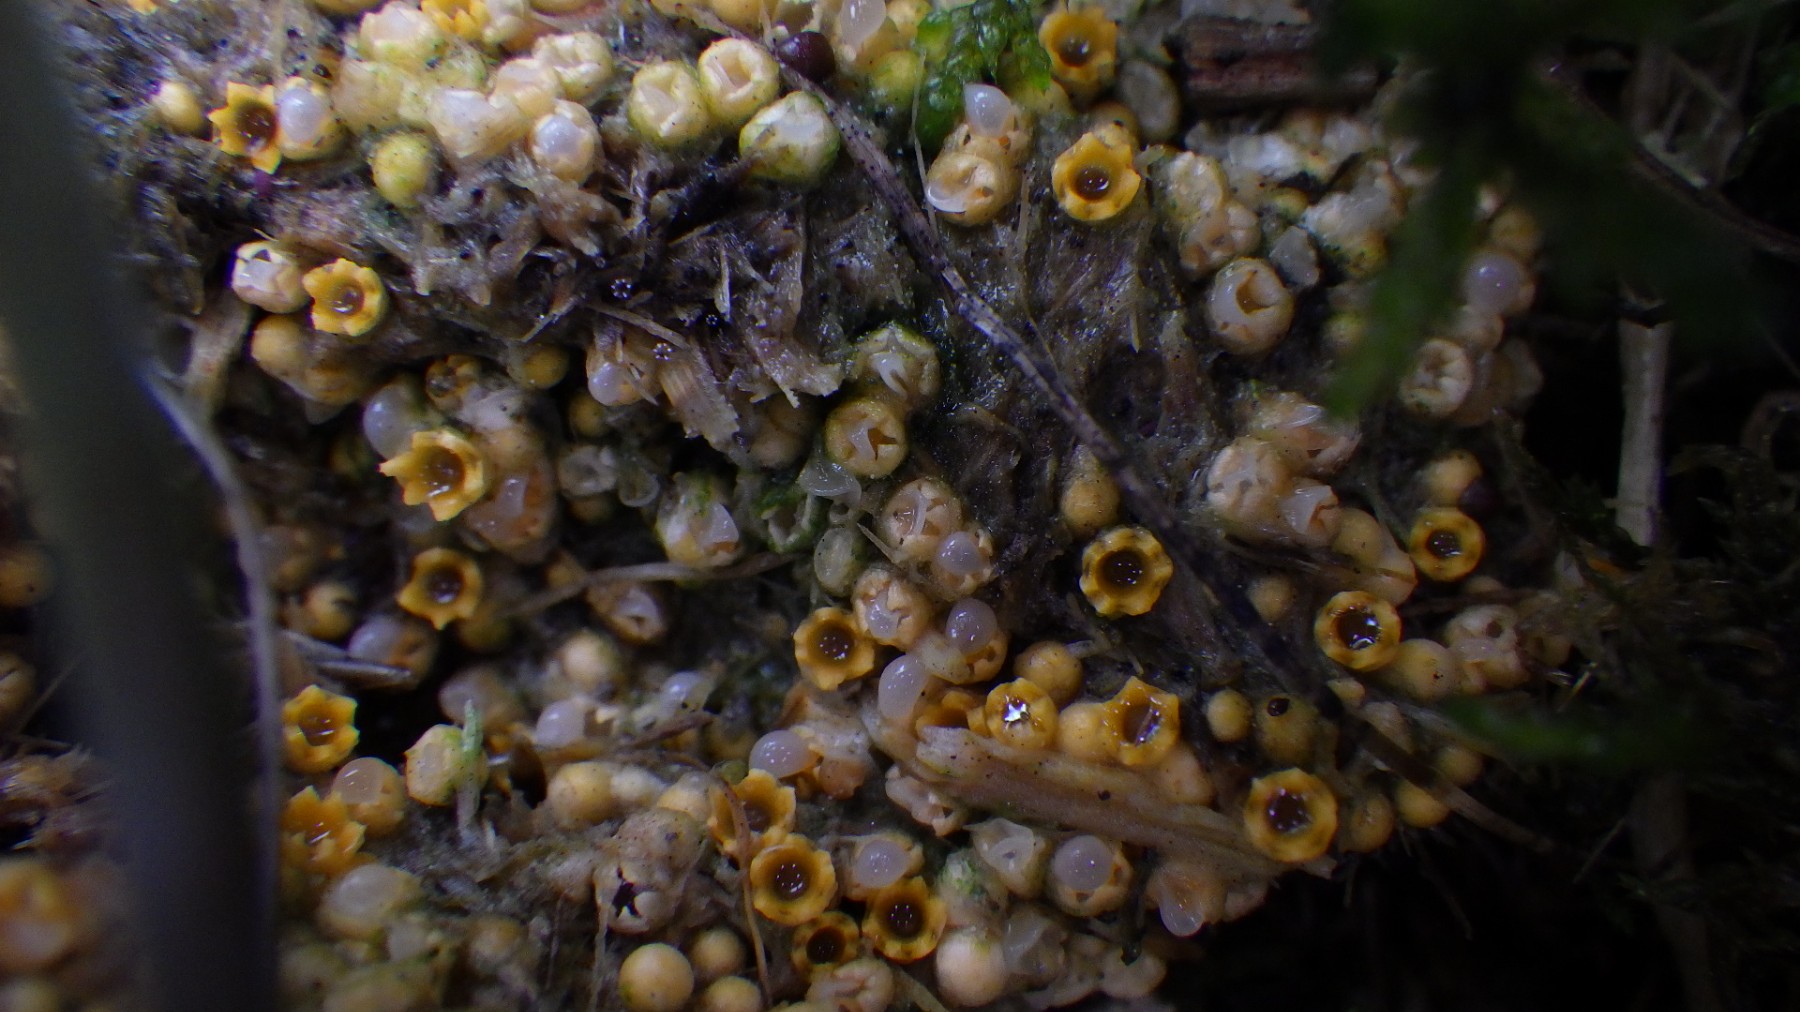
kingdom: Fungi
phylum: Basidiomycota
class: Agaricomycetes
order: Geastrales
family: Geastraceae
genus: Sphaerobolus
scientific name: Sphaerobolus stellatus
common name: bombekaster
